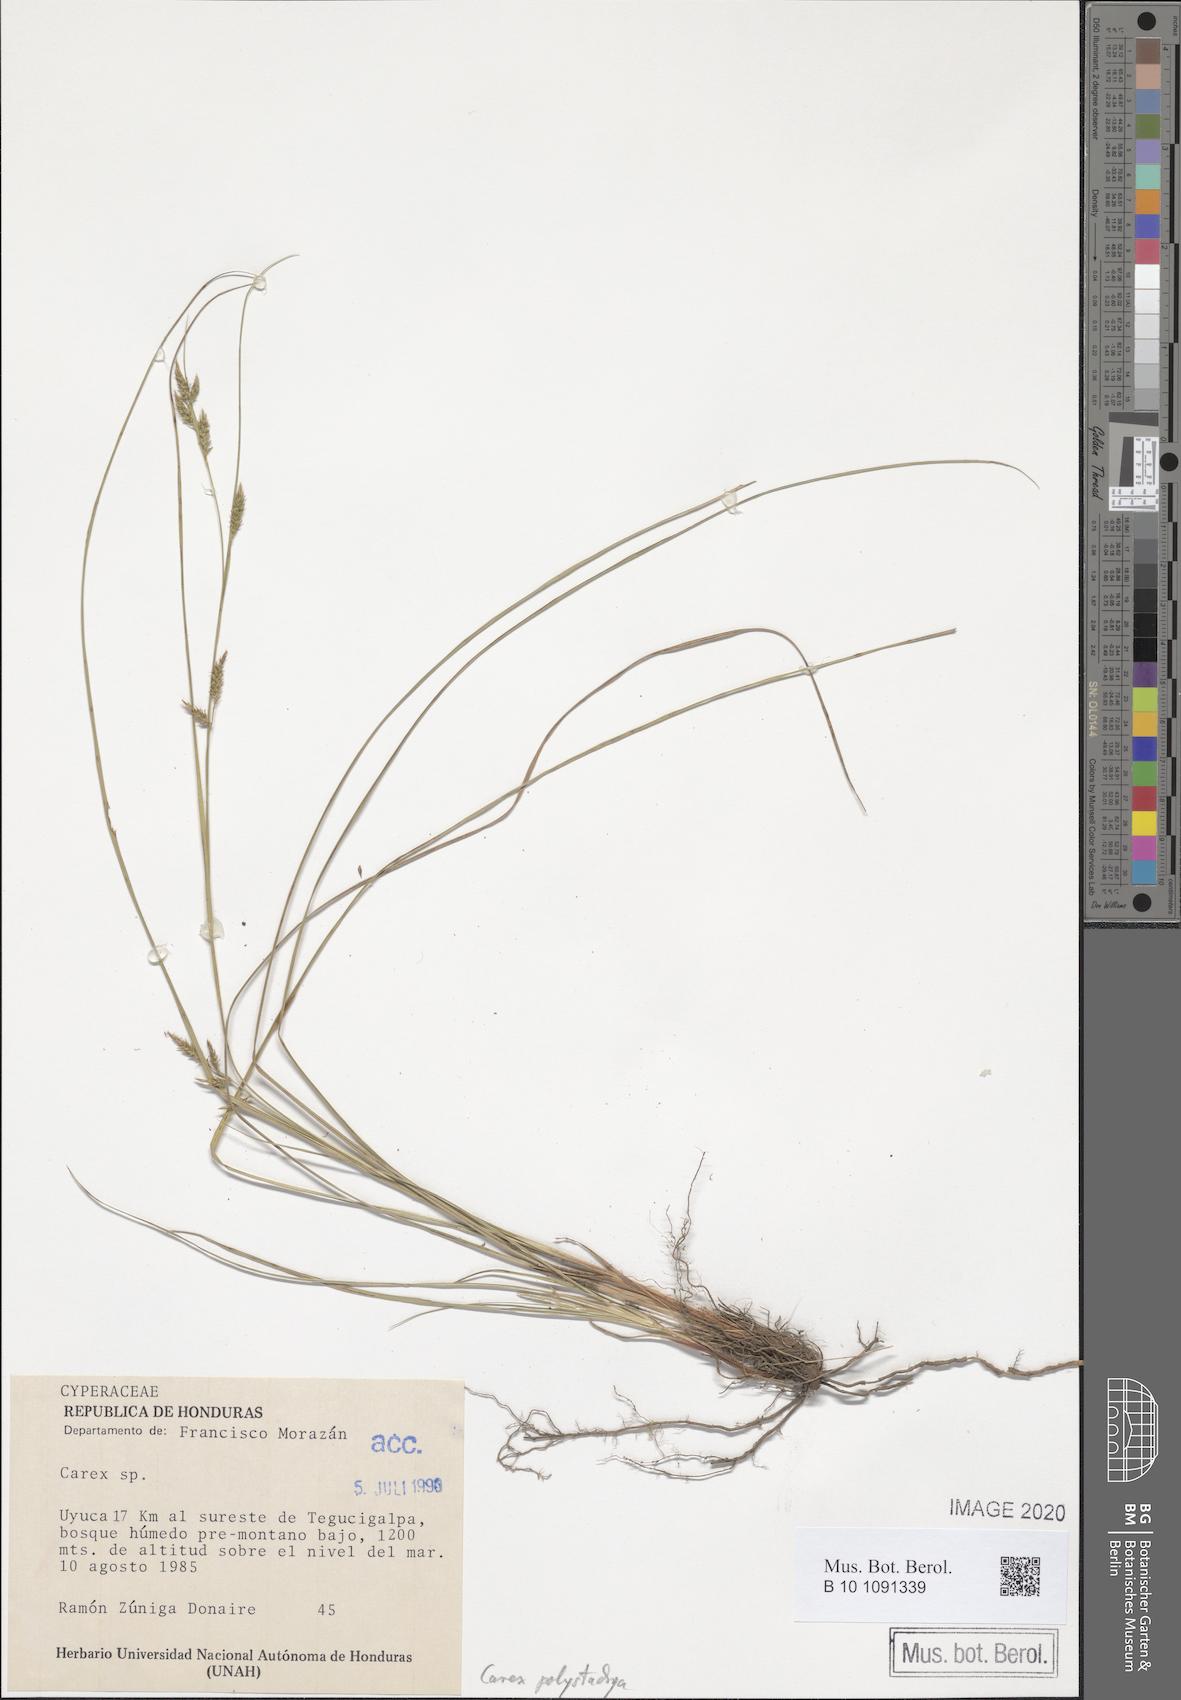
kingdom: Plantae
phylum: Tracheophyta
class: Liliopsida
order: Poales
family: Cyperaceae
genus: Carex
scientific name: Carex polystachya
